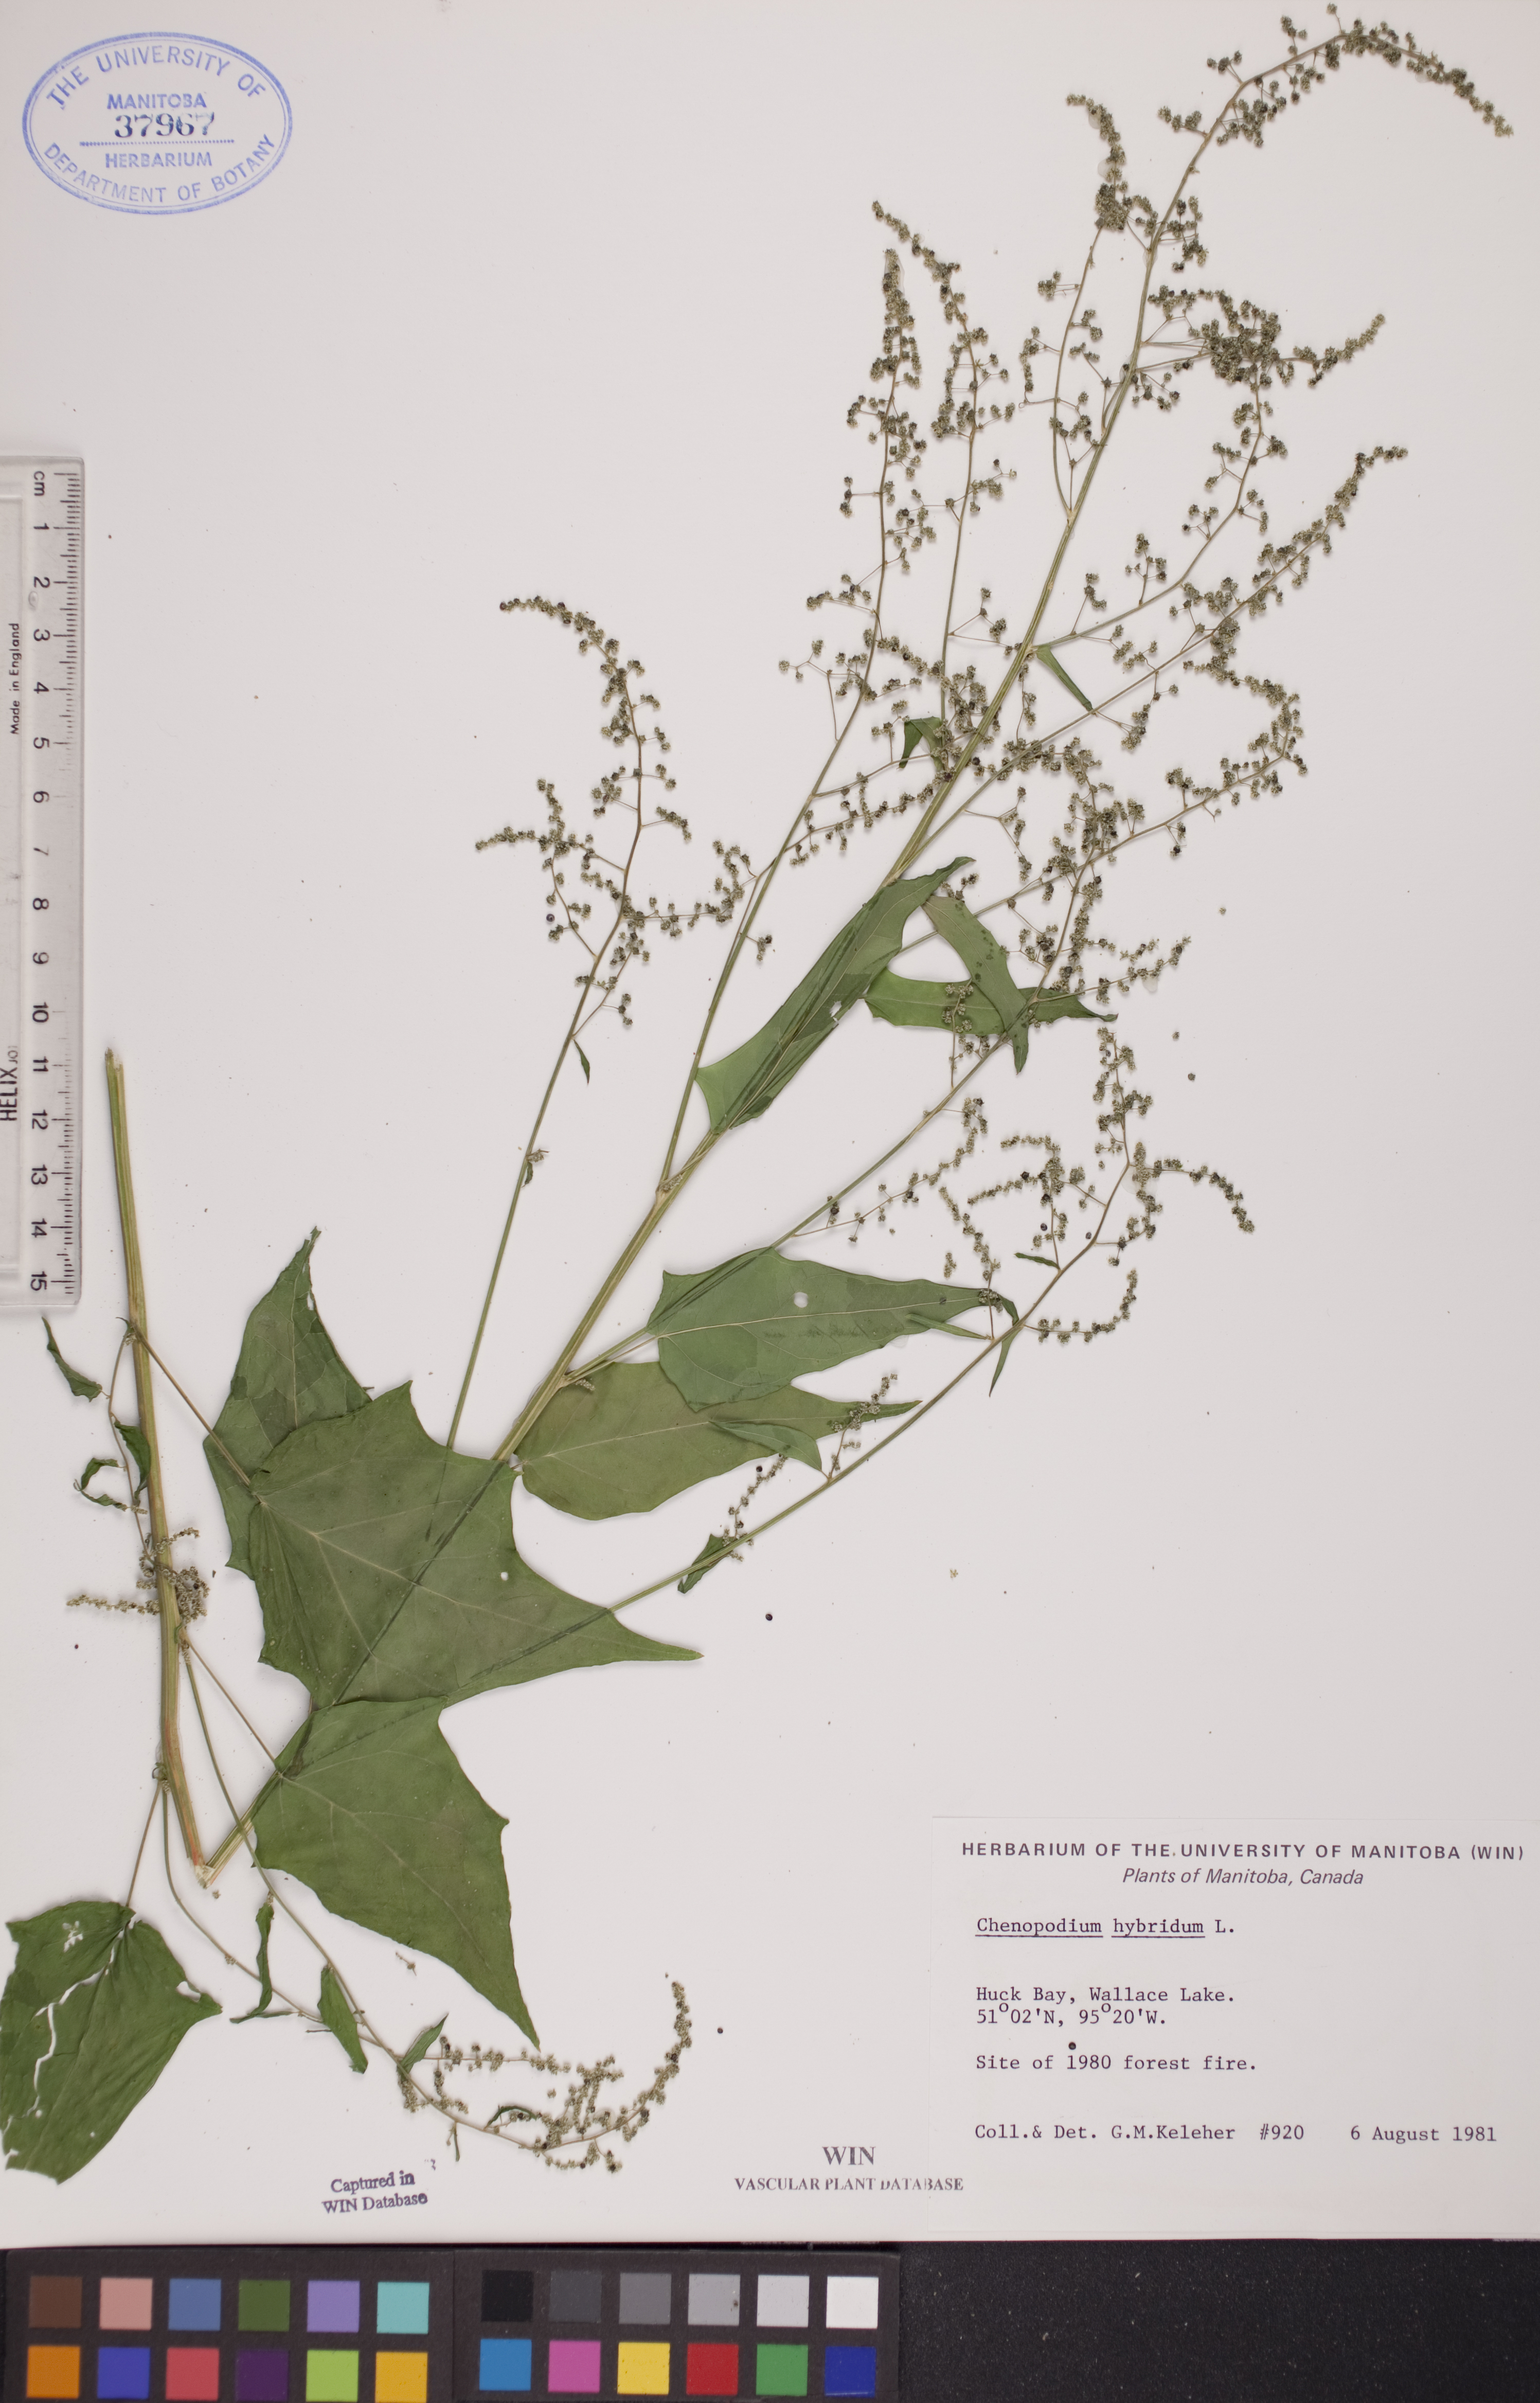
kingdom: Plantae
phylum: Tracheophyta
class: Magnoliopsida
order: Caryophyllales
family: Amaranthaceae
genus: Chenopodiastrum
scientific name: Chenopodiastrum hybridum
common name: Mapleleaf goosefoot
